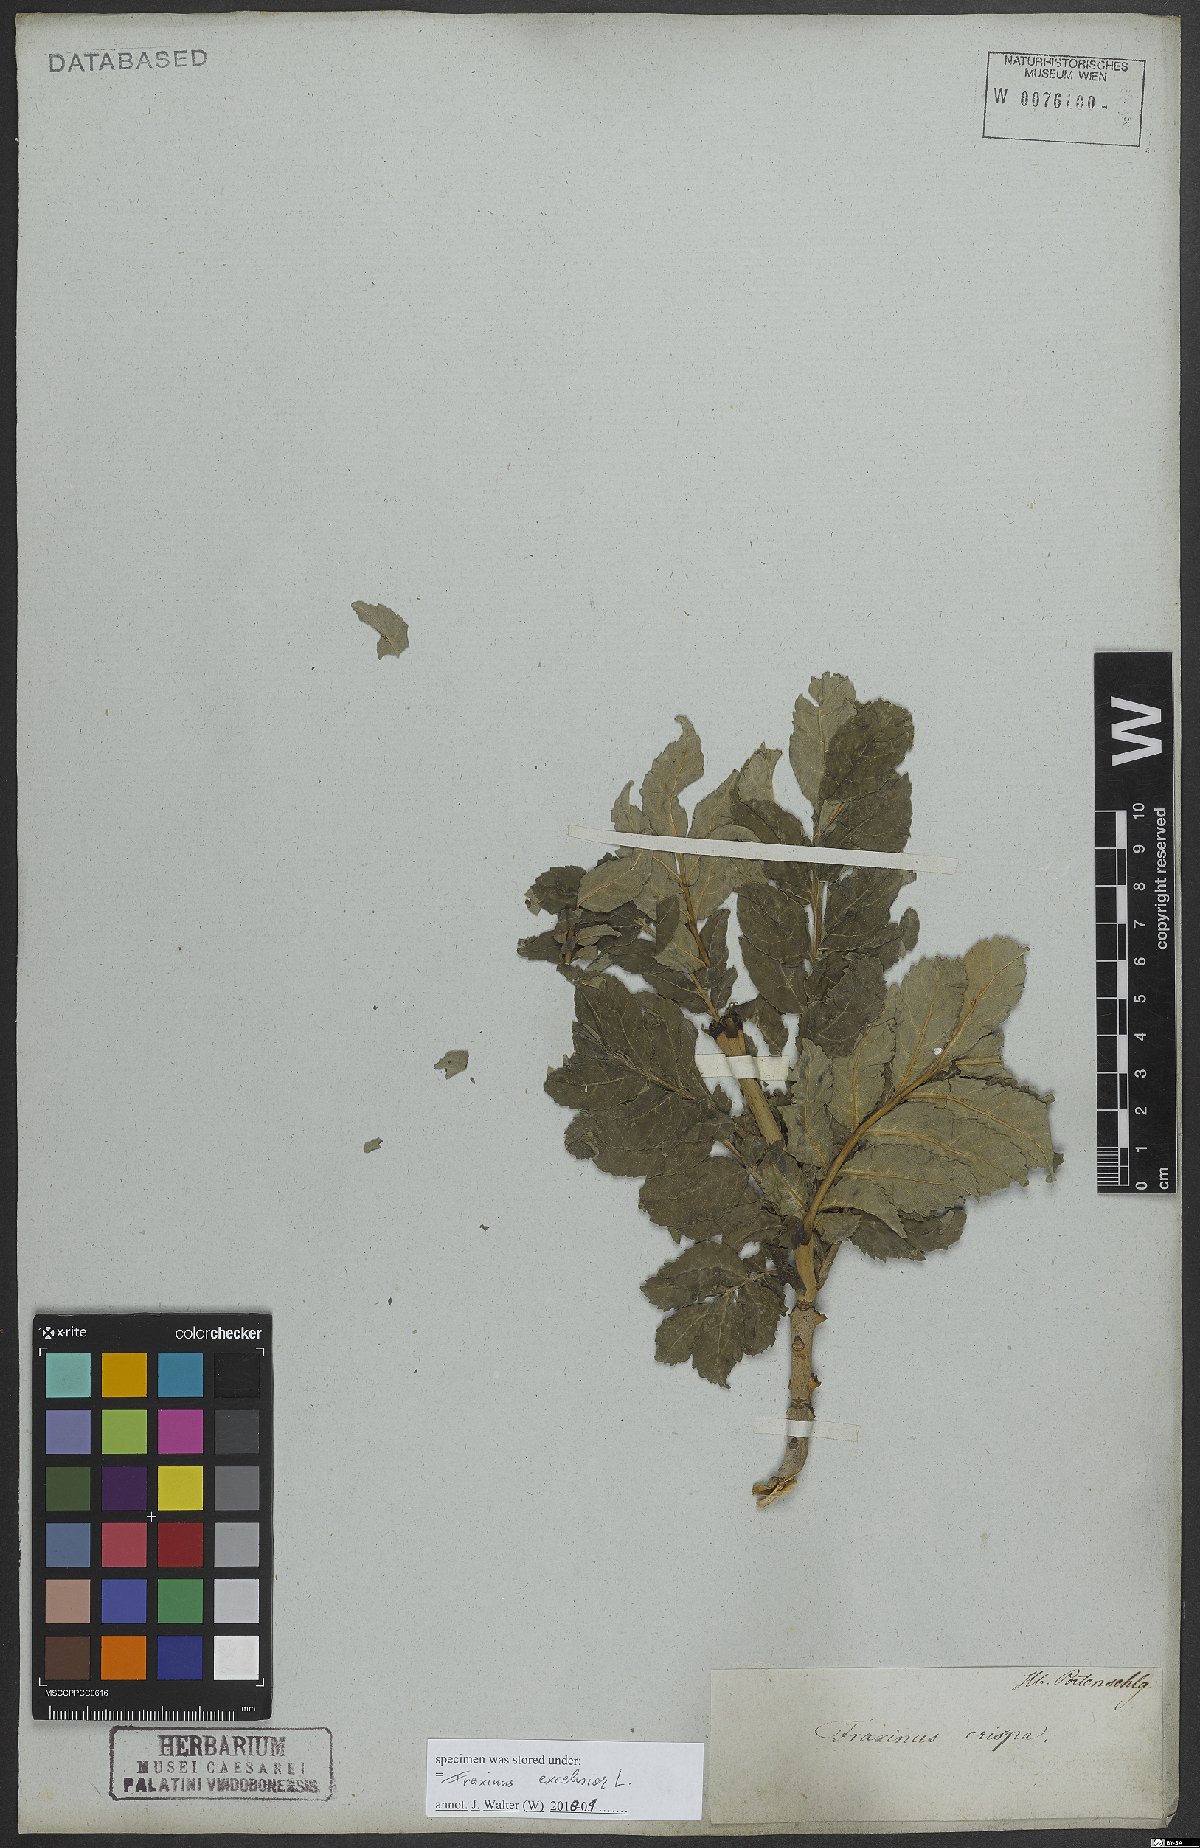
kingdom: Plantae
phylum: Tracheophyta
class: Magnoliopsida
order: Lamiales
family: Oleaceae
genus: Fraxinus
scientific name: Fraxinus excelsior
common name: European ash
